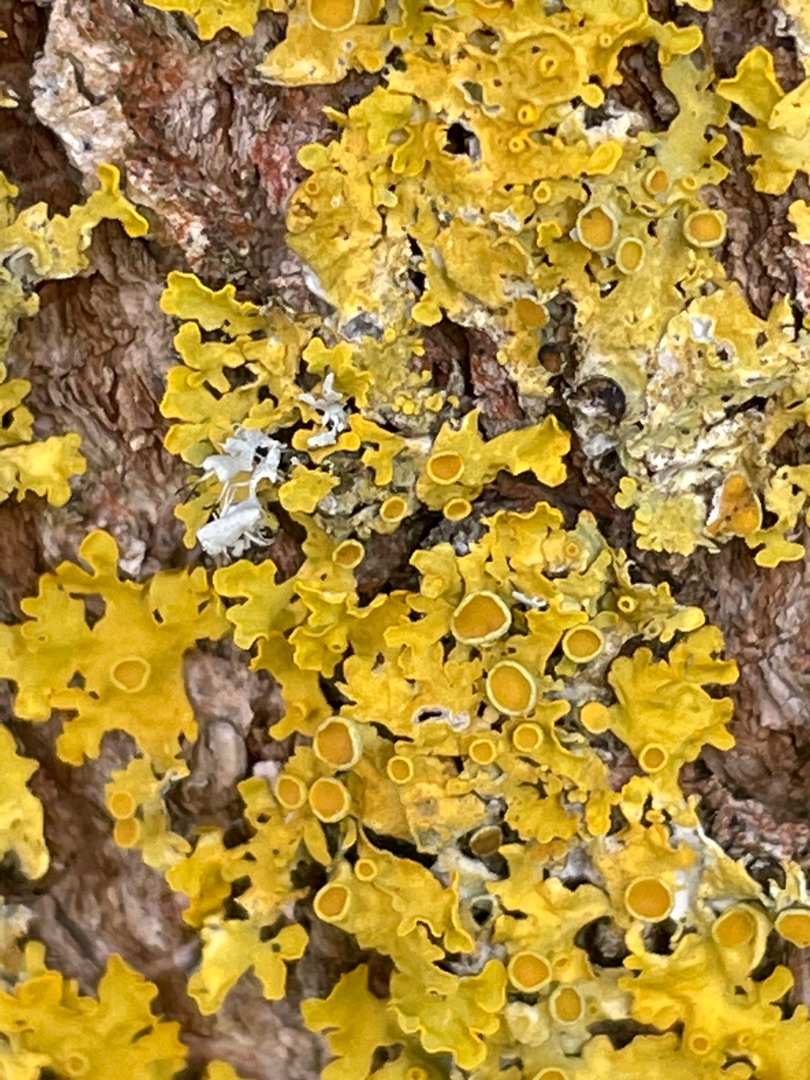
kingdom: Fungi
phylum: Ascomycota
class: Lecanoromycetes
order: Teloschistales
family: Teloschistaceae
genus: Xanthoria
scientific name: Xanthoria parietina
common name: Almindelig væggelav
